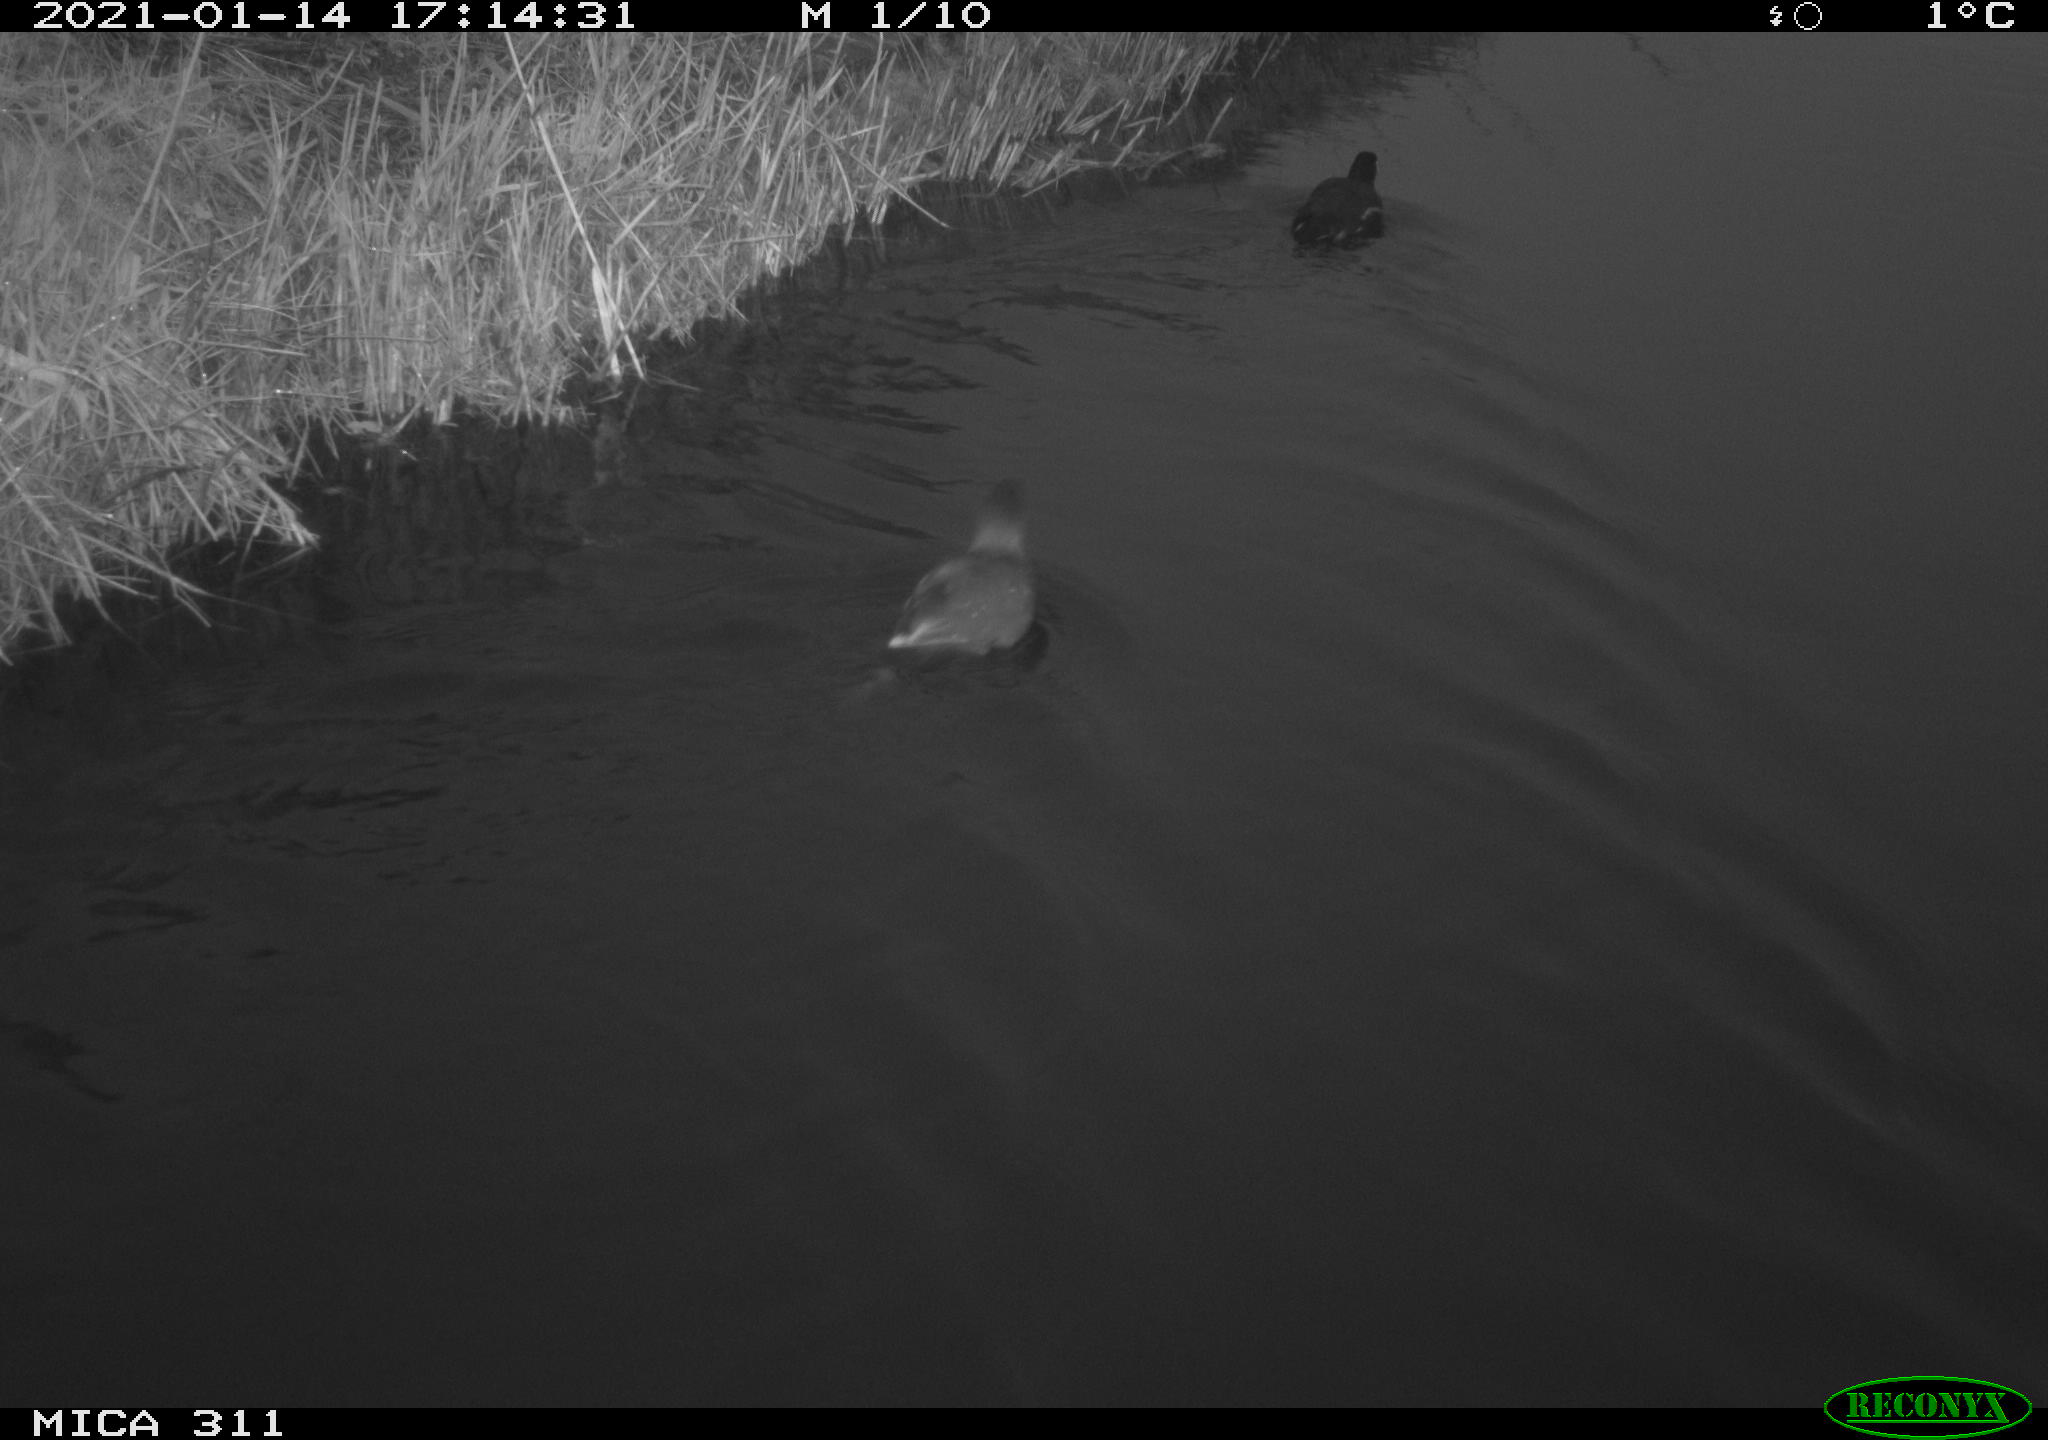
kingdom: Animalia
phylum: Chordata
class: Aves
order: Gruiformes
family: Rallidae
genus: Gallinula
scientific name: Gallinula chloropus
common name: Common moorhen
